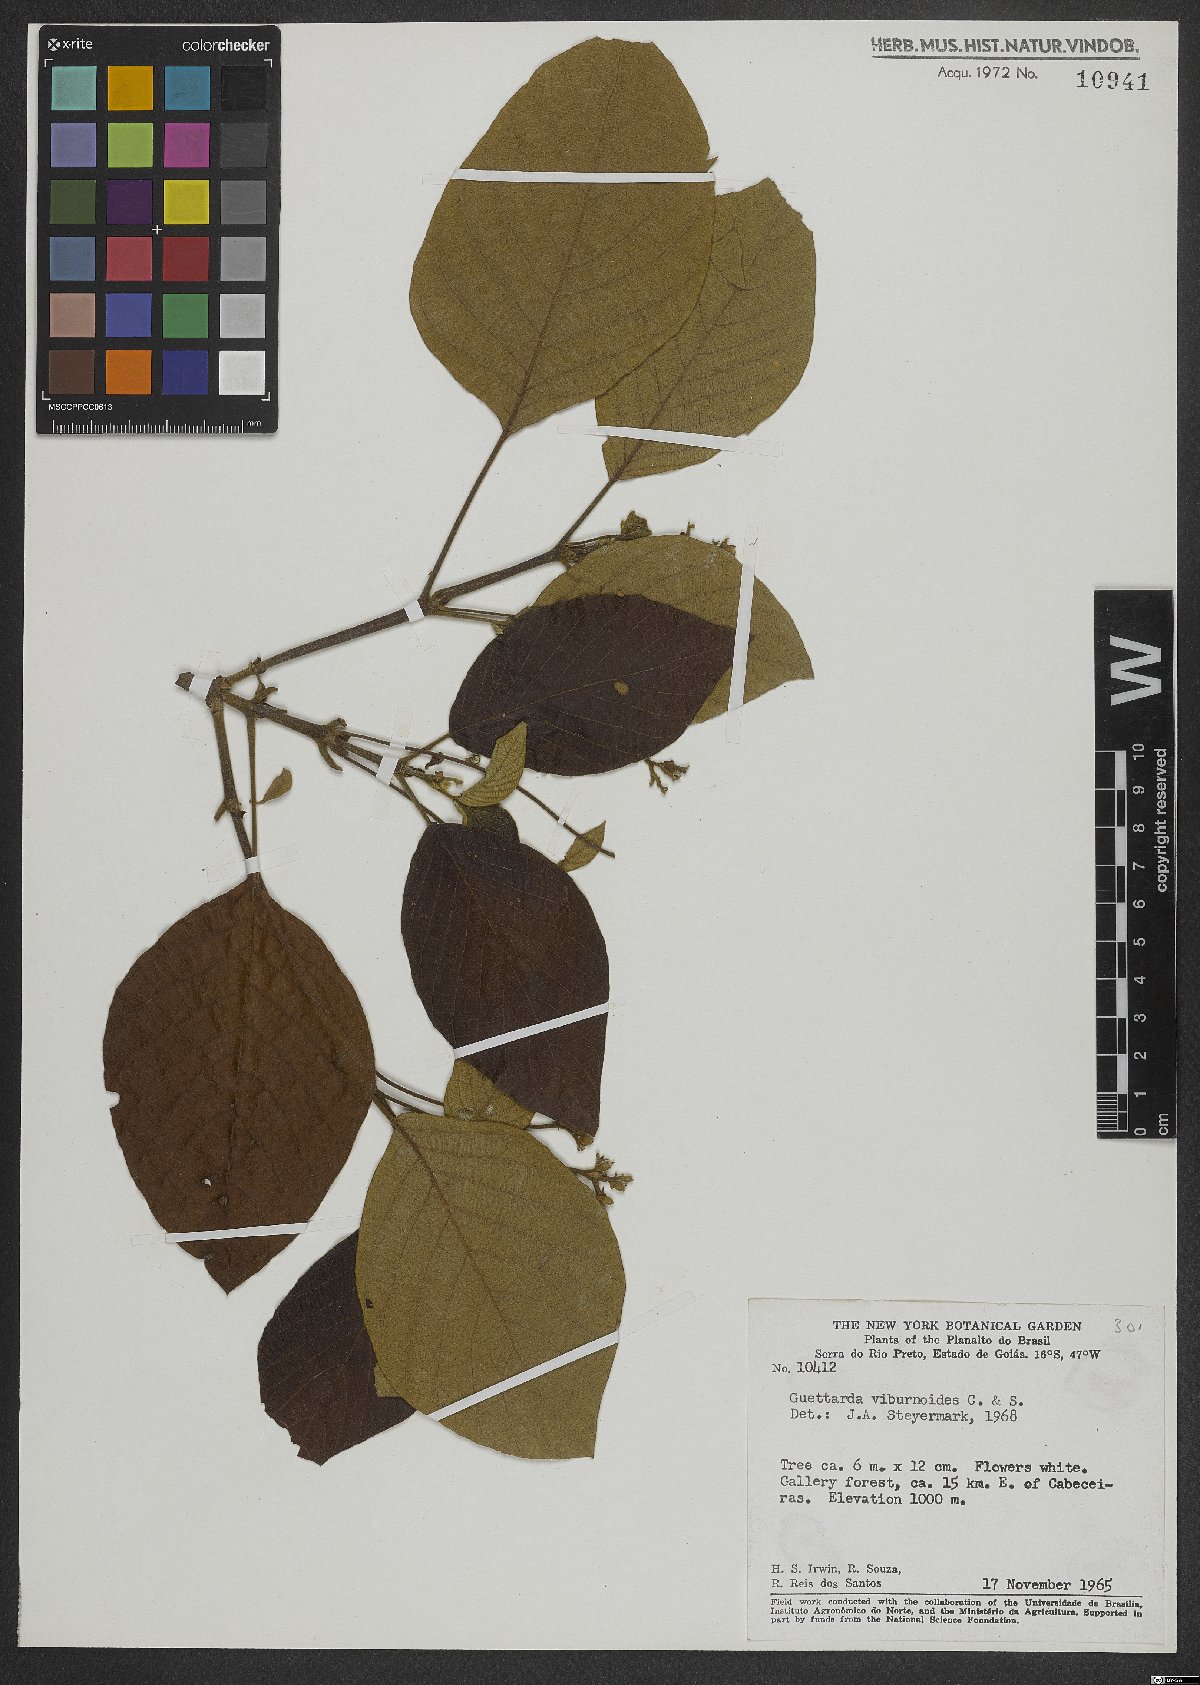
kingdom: Plantae
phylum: Tracheophyta
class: Magnoliopsida
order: Gentianales
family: Rubiaceae
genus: Guettarda
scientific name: Guettarda viburnoides
